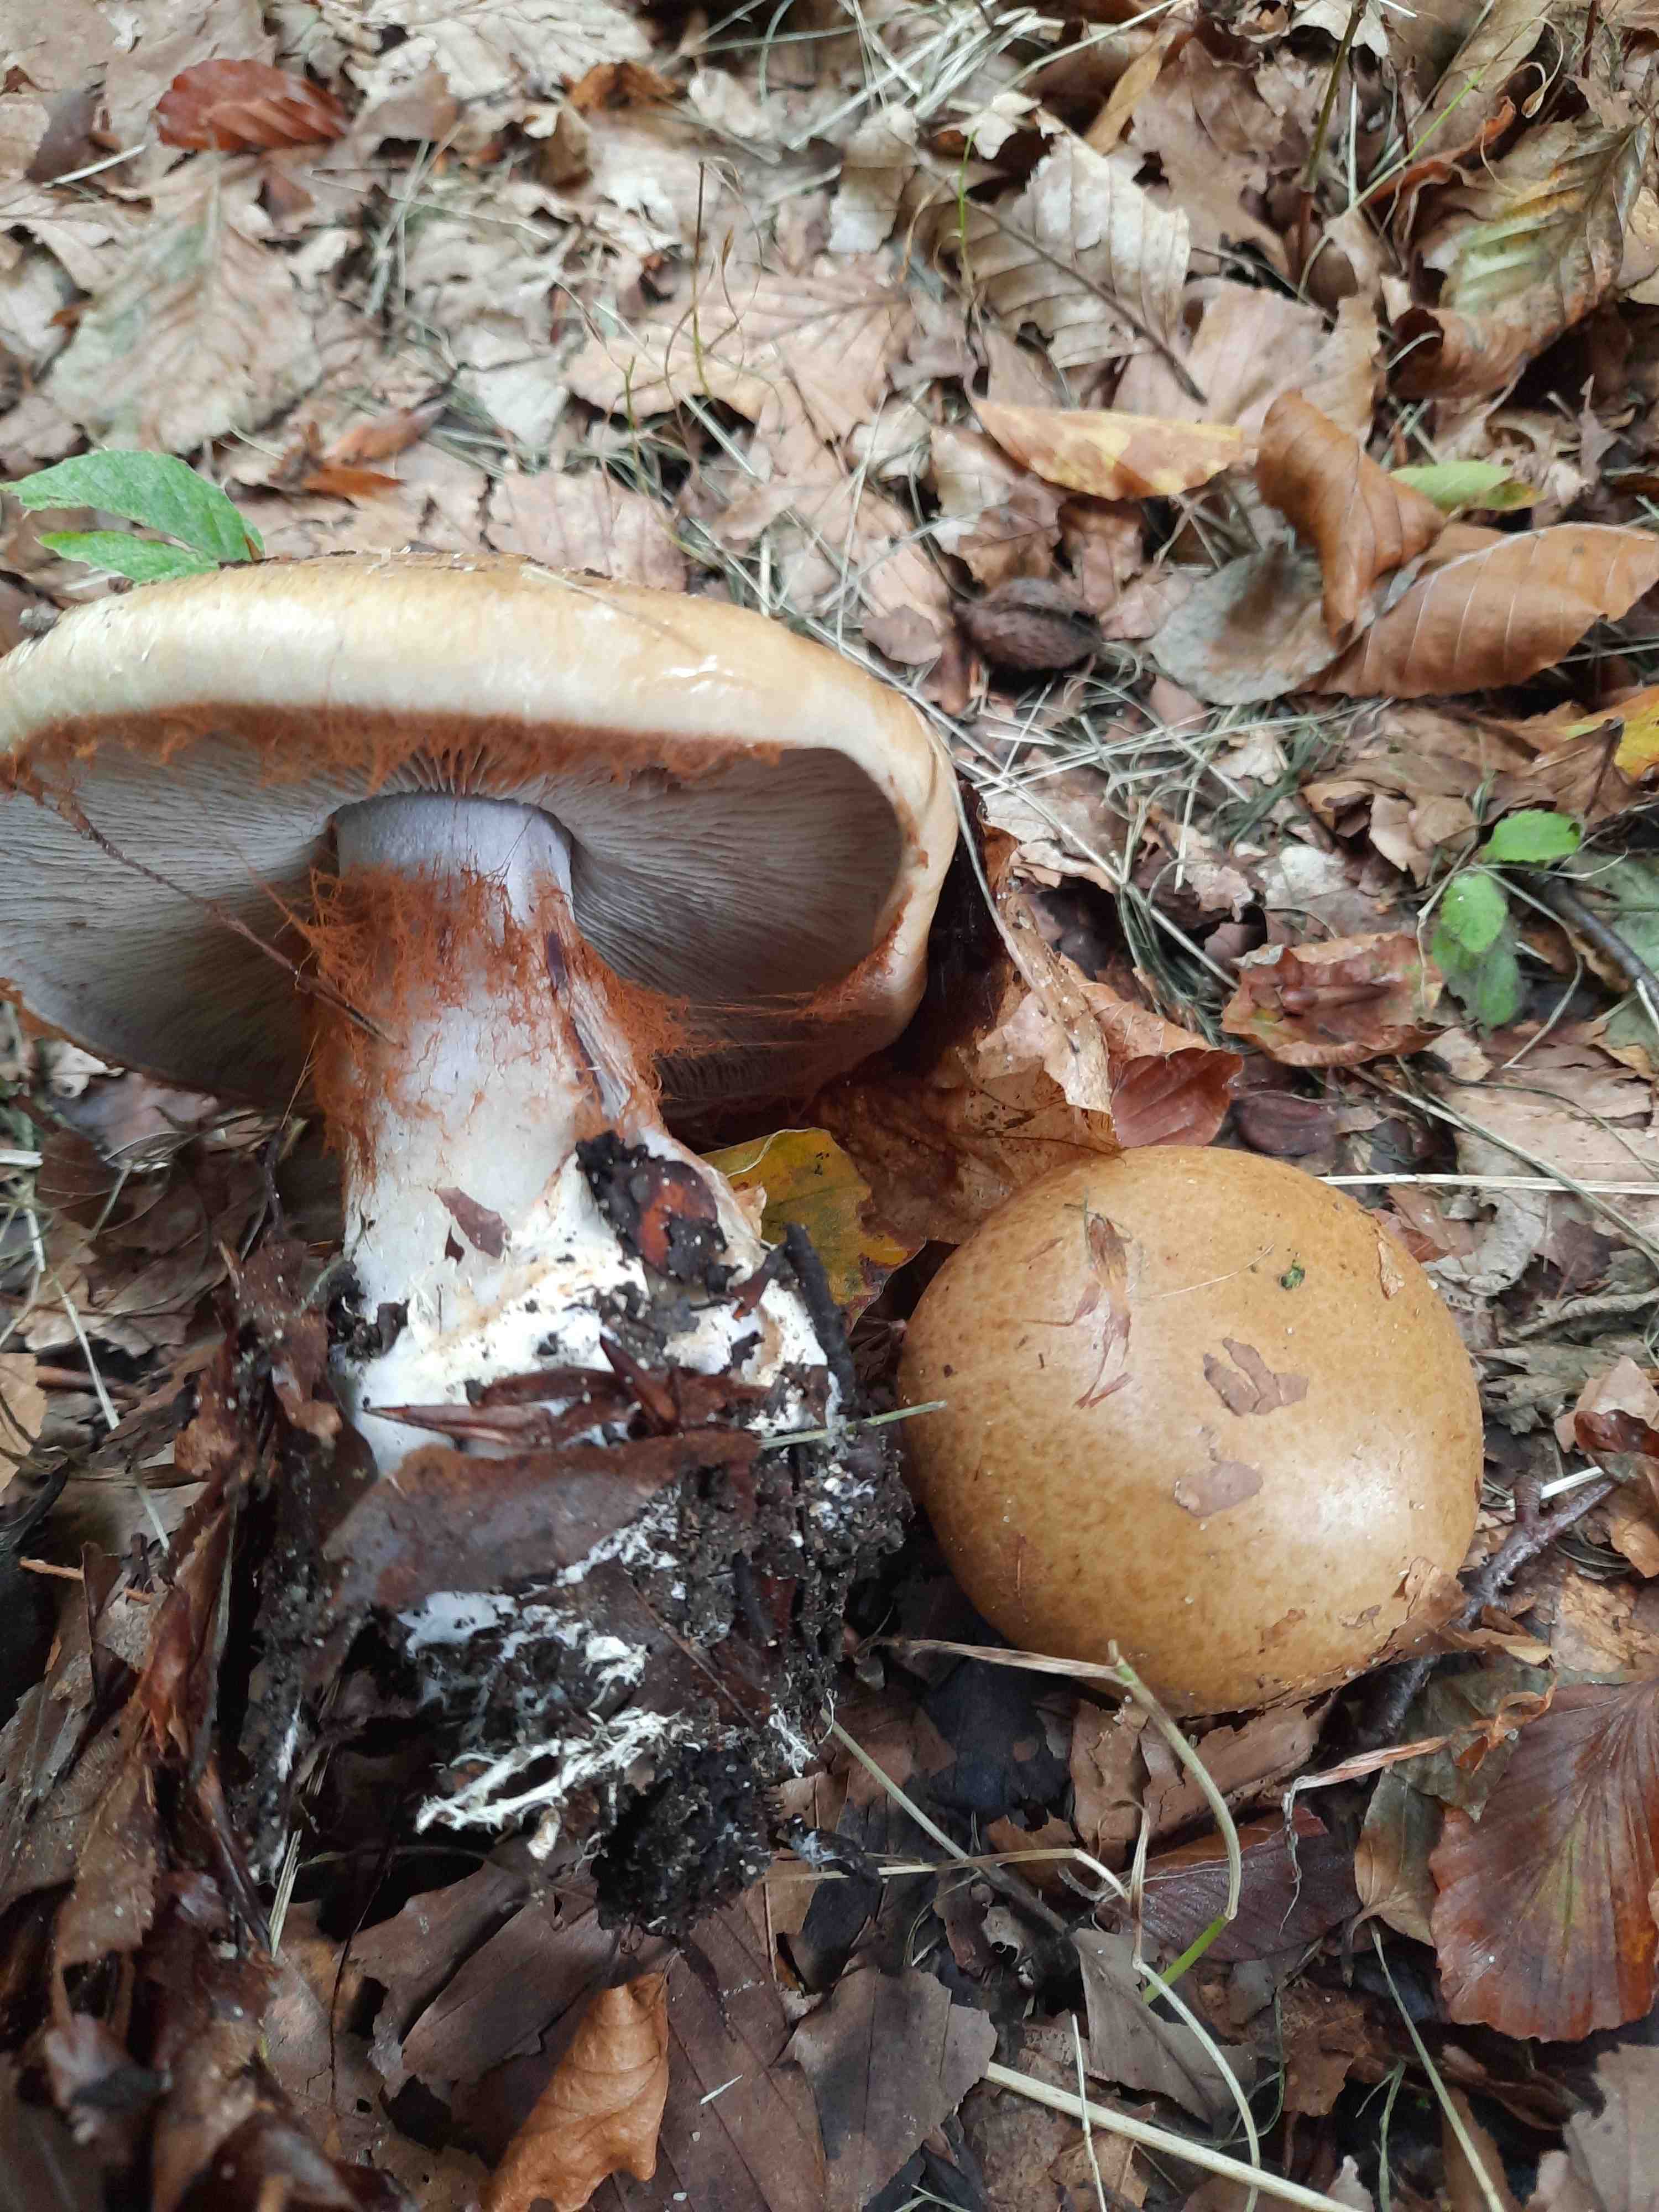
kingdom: Fungi
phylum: Basidiomycota
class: Agaricomycetes
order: Agaricales
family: Cortinariaceae
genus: Cortinarius
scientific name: Cortinarius
